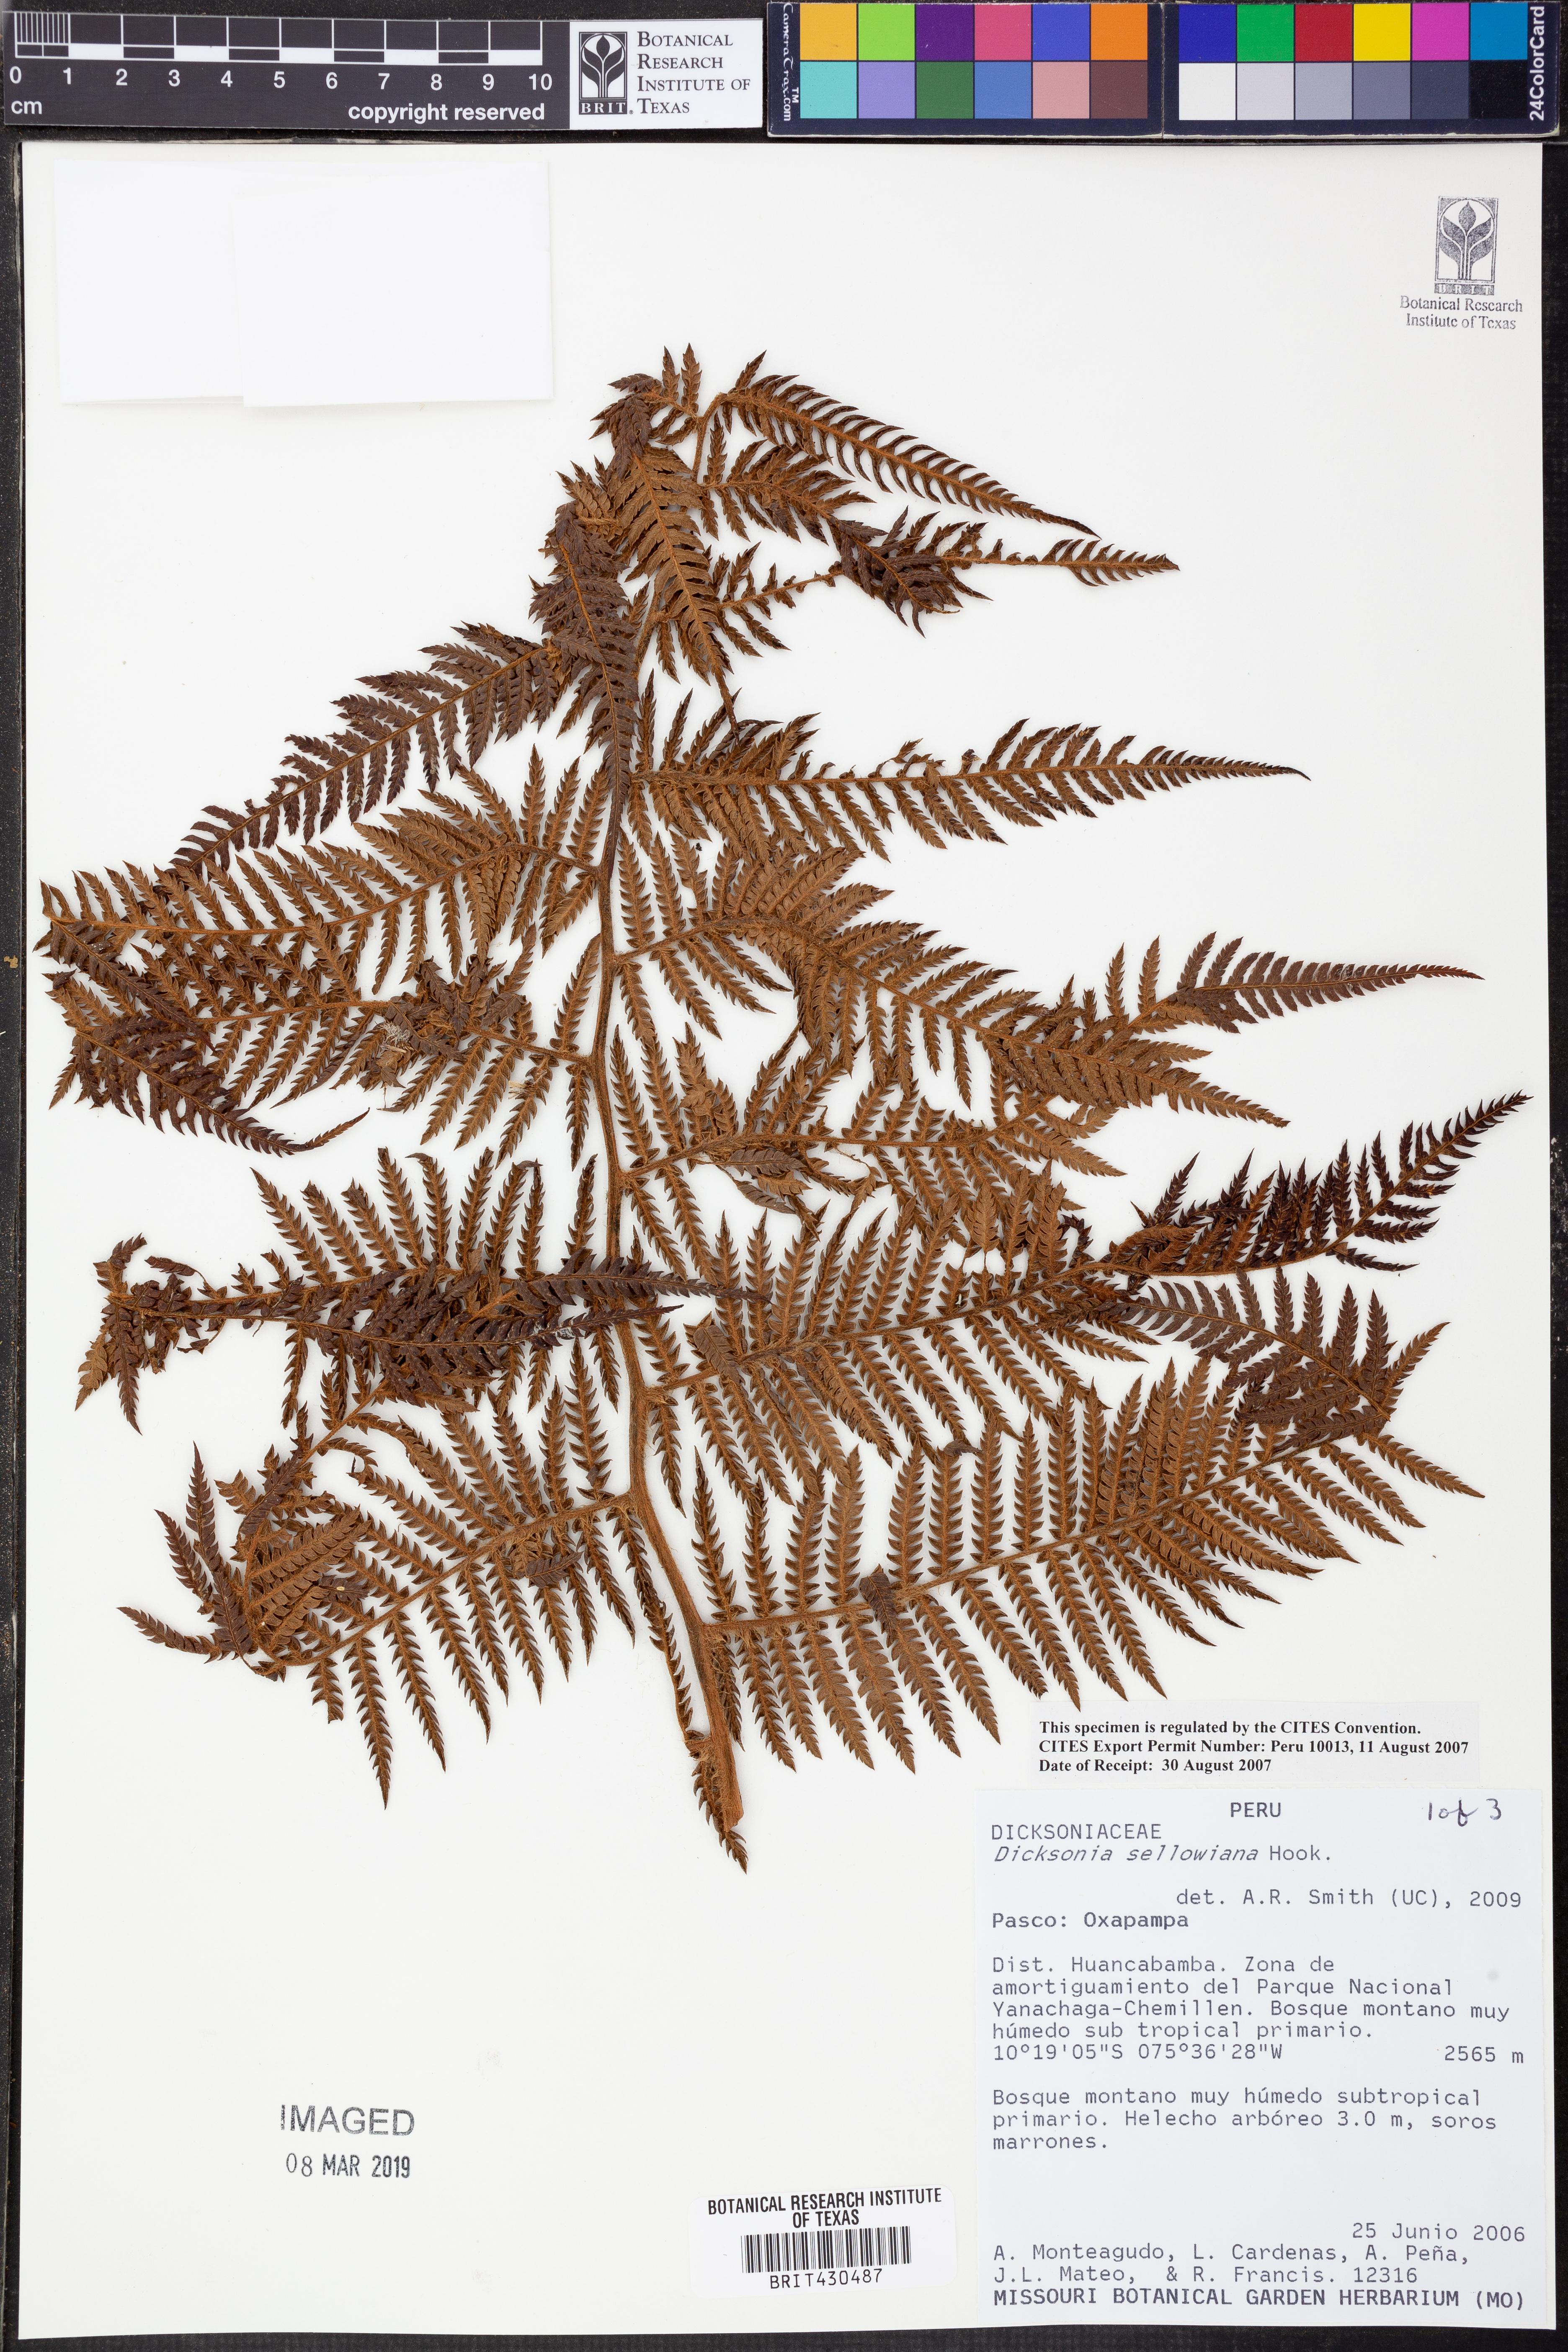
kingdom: Plantae
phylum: Tracheophyta
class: Polypodiopsida
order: Cyatheales
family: Dicksoniaceae
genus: Dicksonia
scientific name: Dicksonia sellowiana
